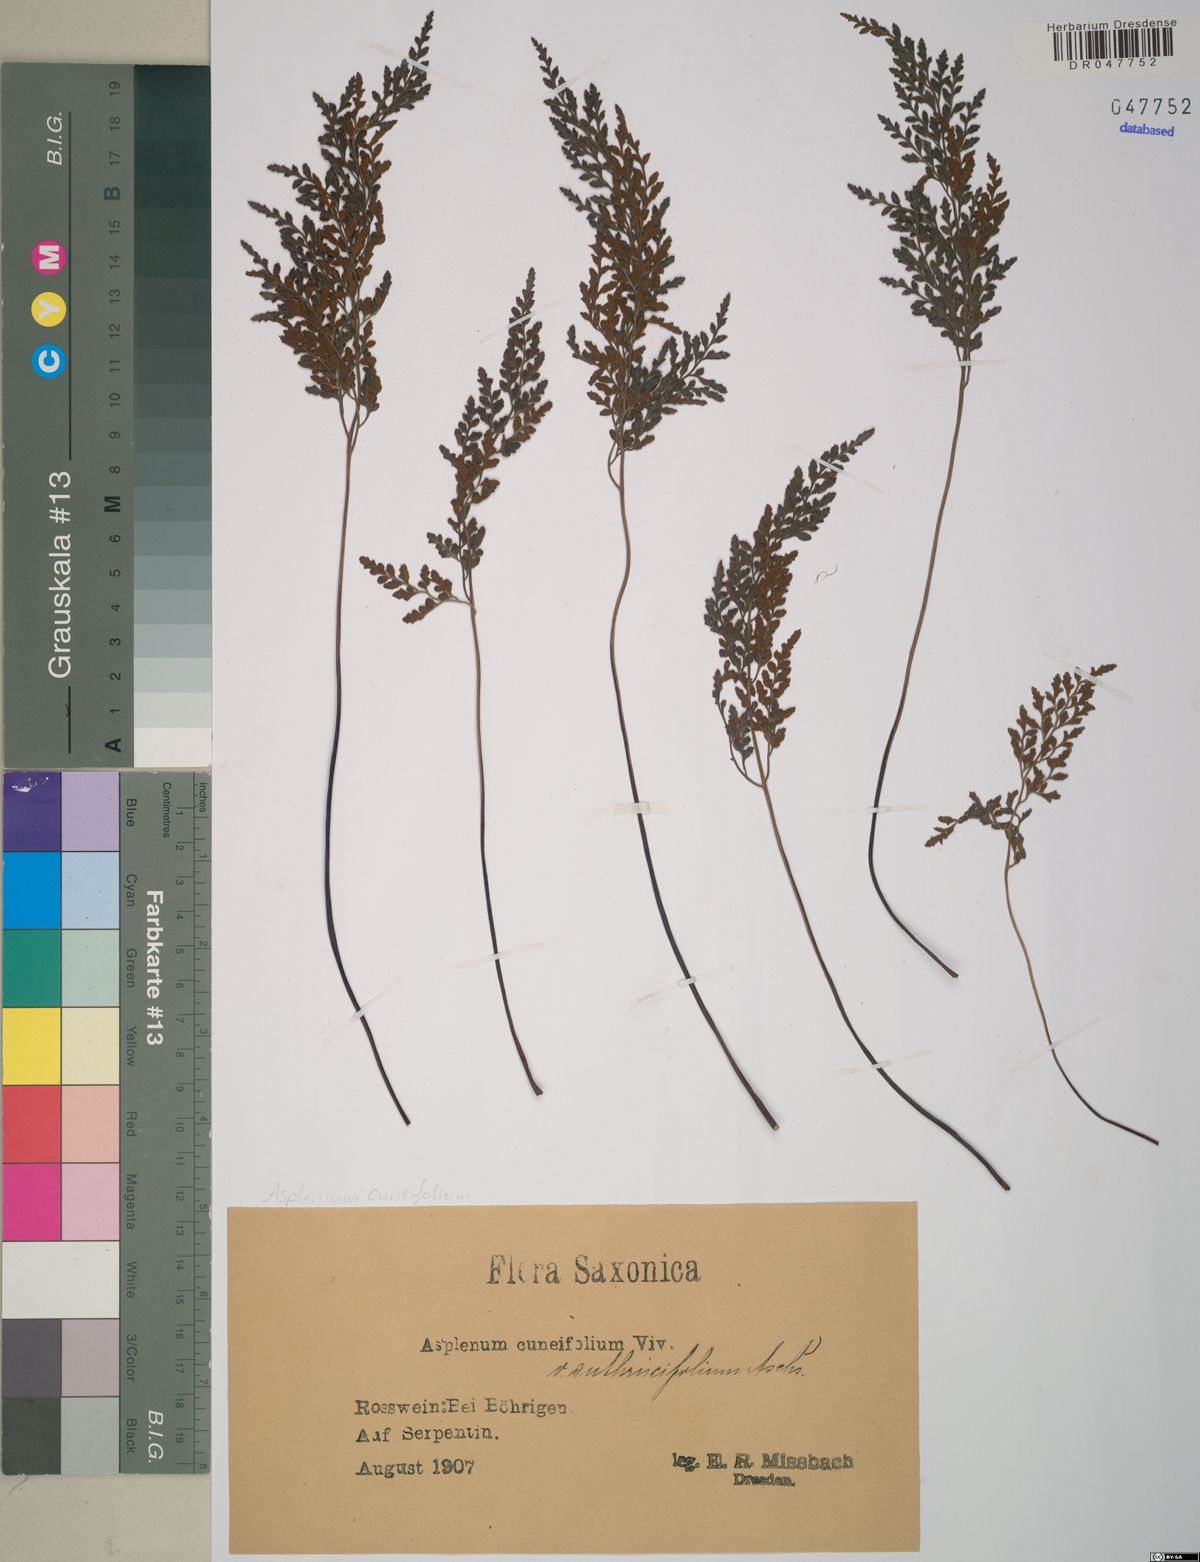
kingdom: Plantae
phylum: Tracheophyta
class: Polypodiopsida
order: Polypodiales
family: Aspleniaceae
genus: Asplenium
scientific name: Asplenium cuneifolium
